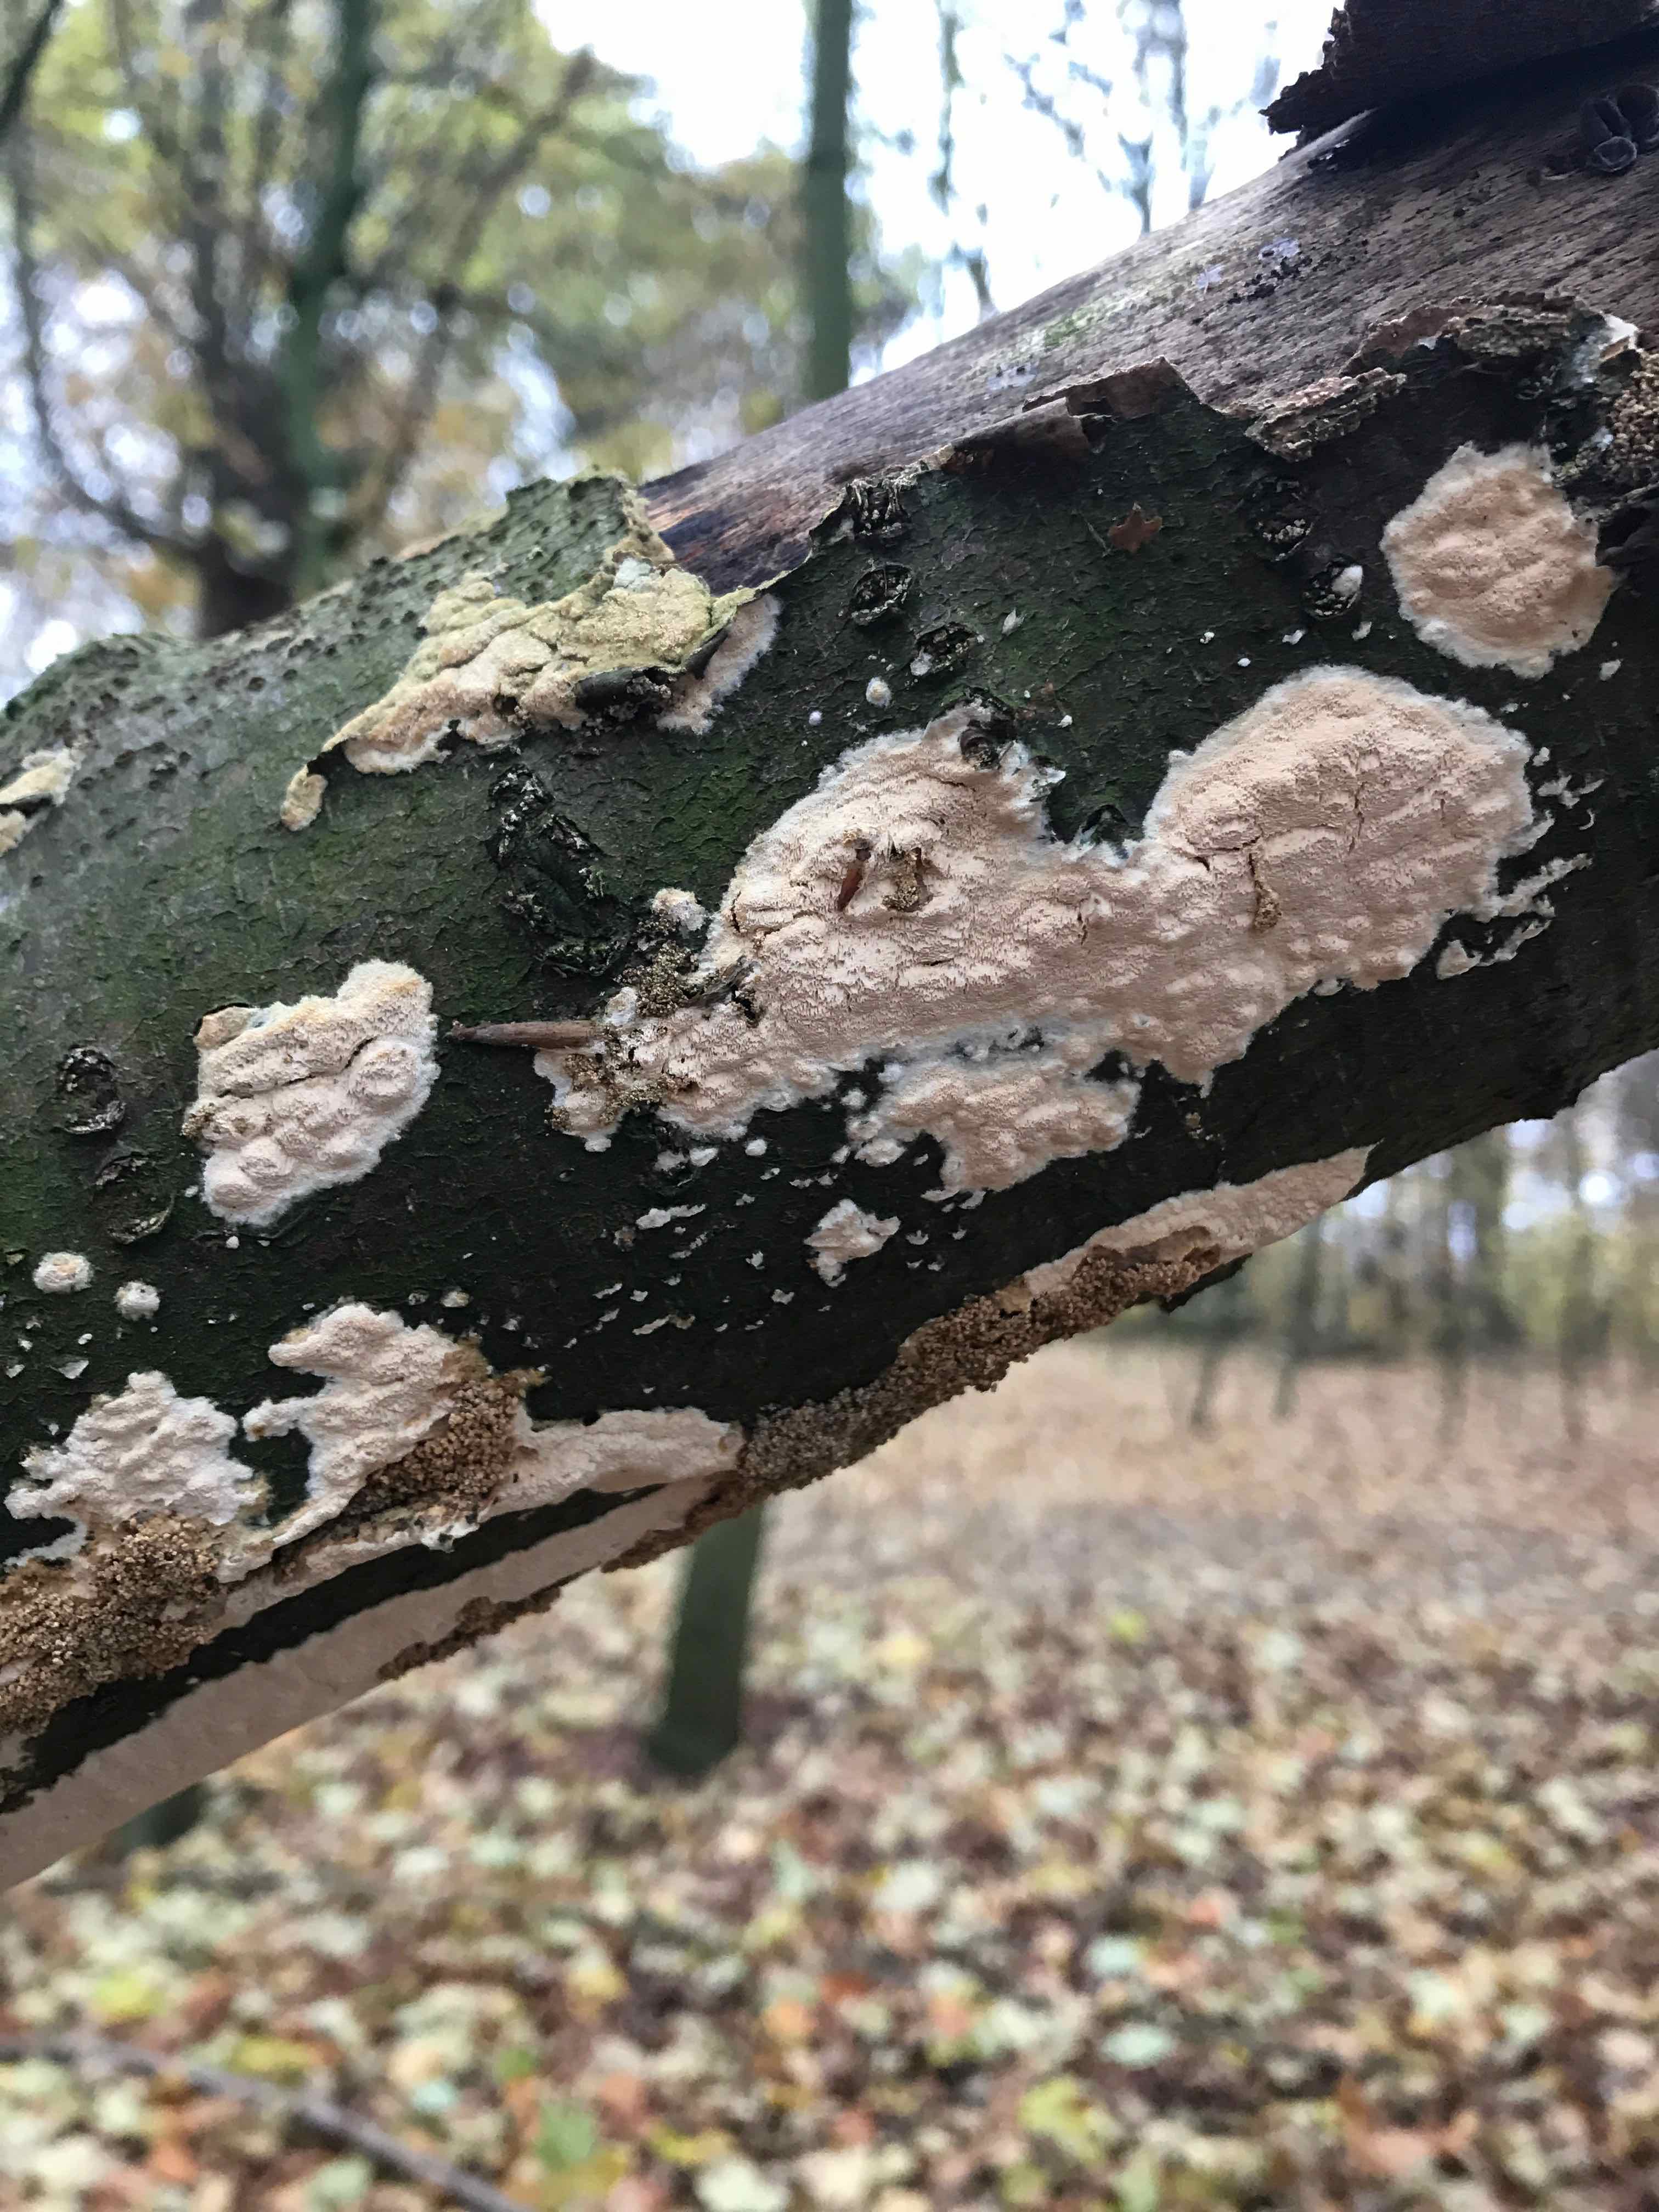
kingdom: Fungi
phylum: Basidiomycota
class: Agaricomycetes
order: Hymenochaetales
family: Schizoporaceae
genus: Xylodon
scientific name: Xylodon flaviporus
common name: gulporet tandsvamp
